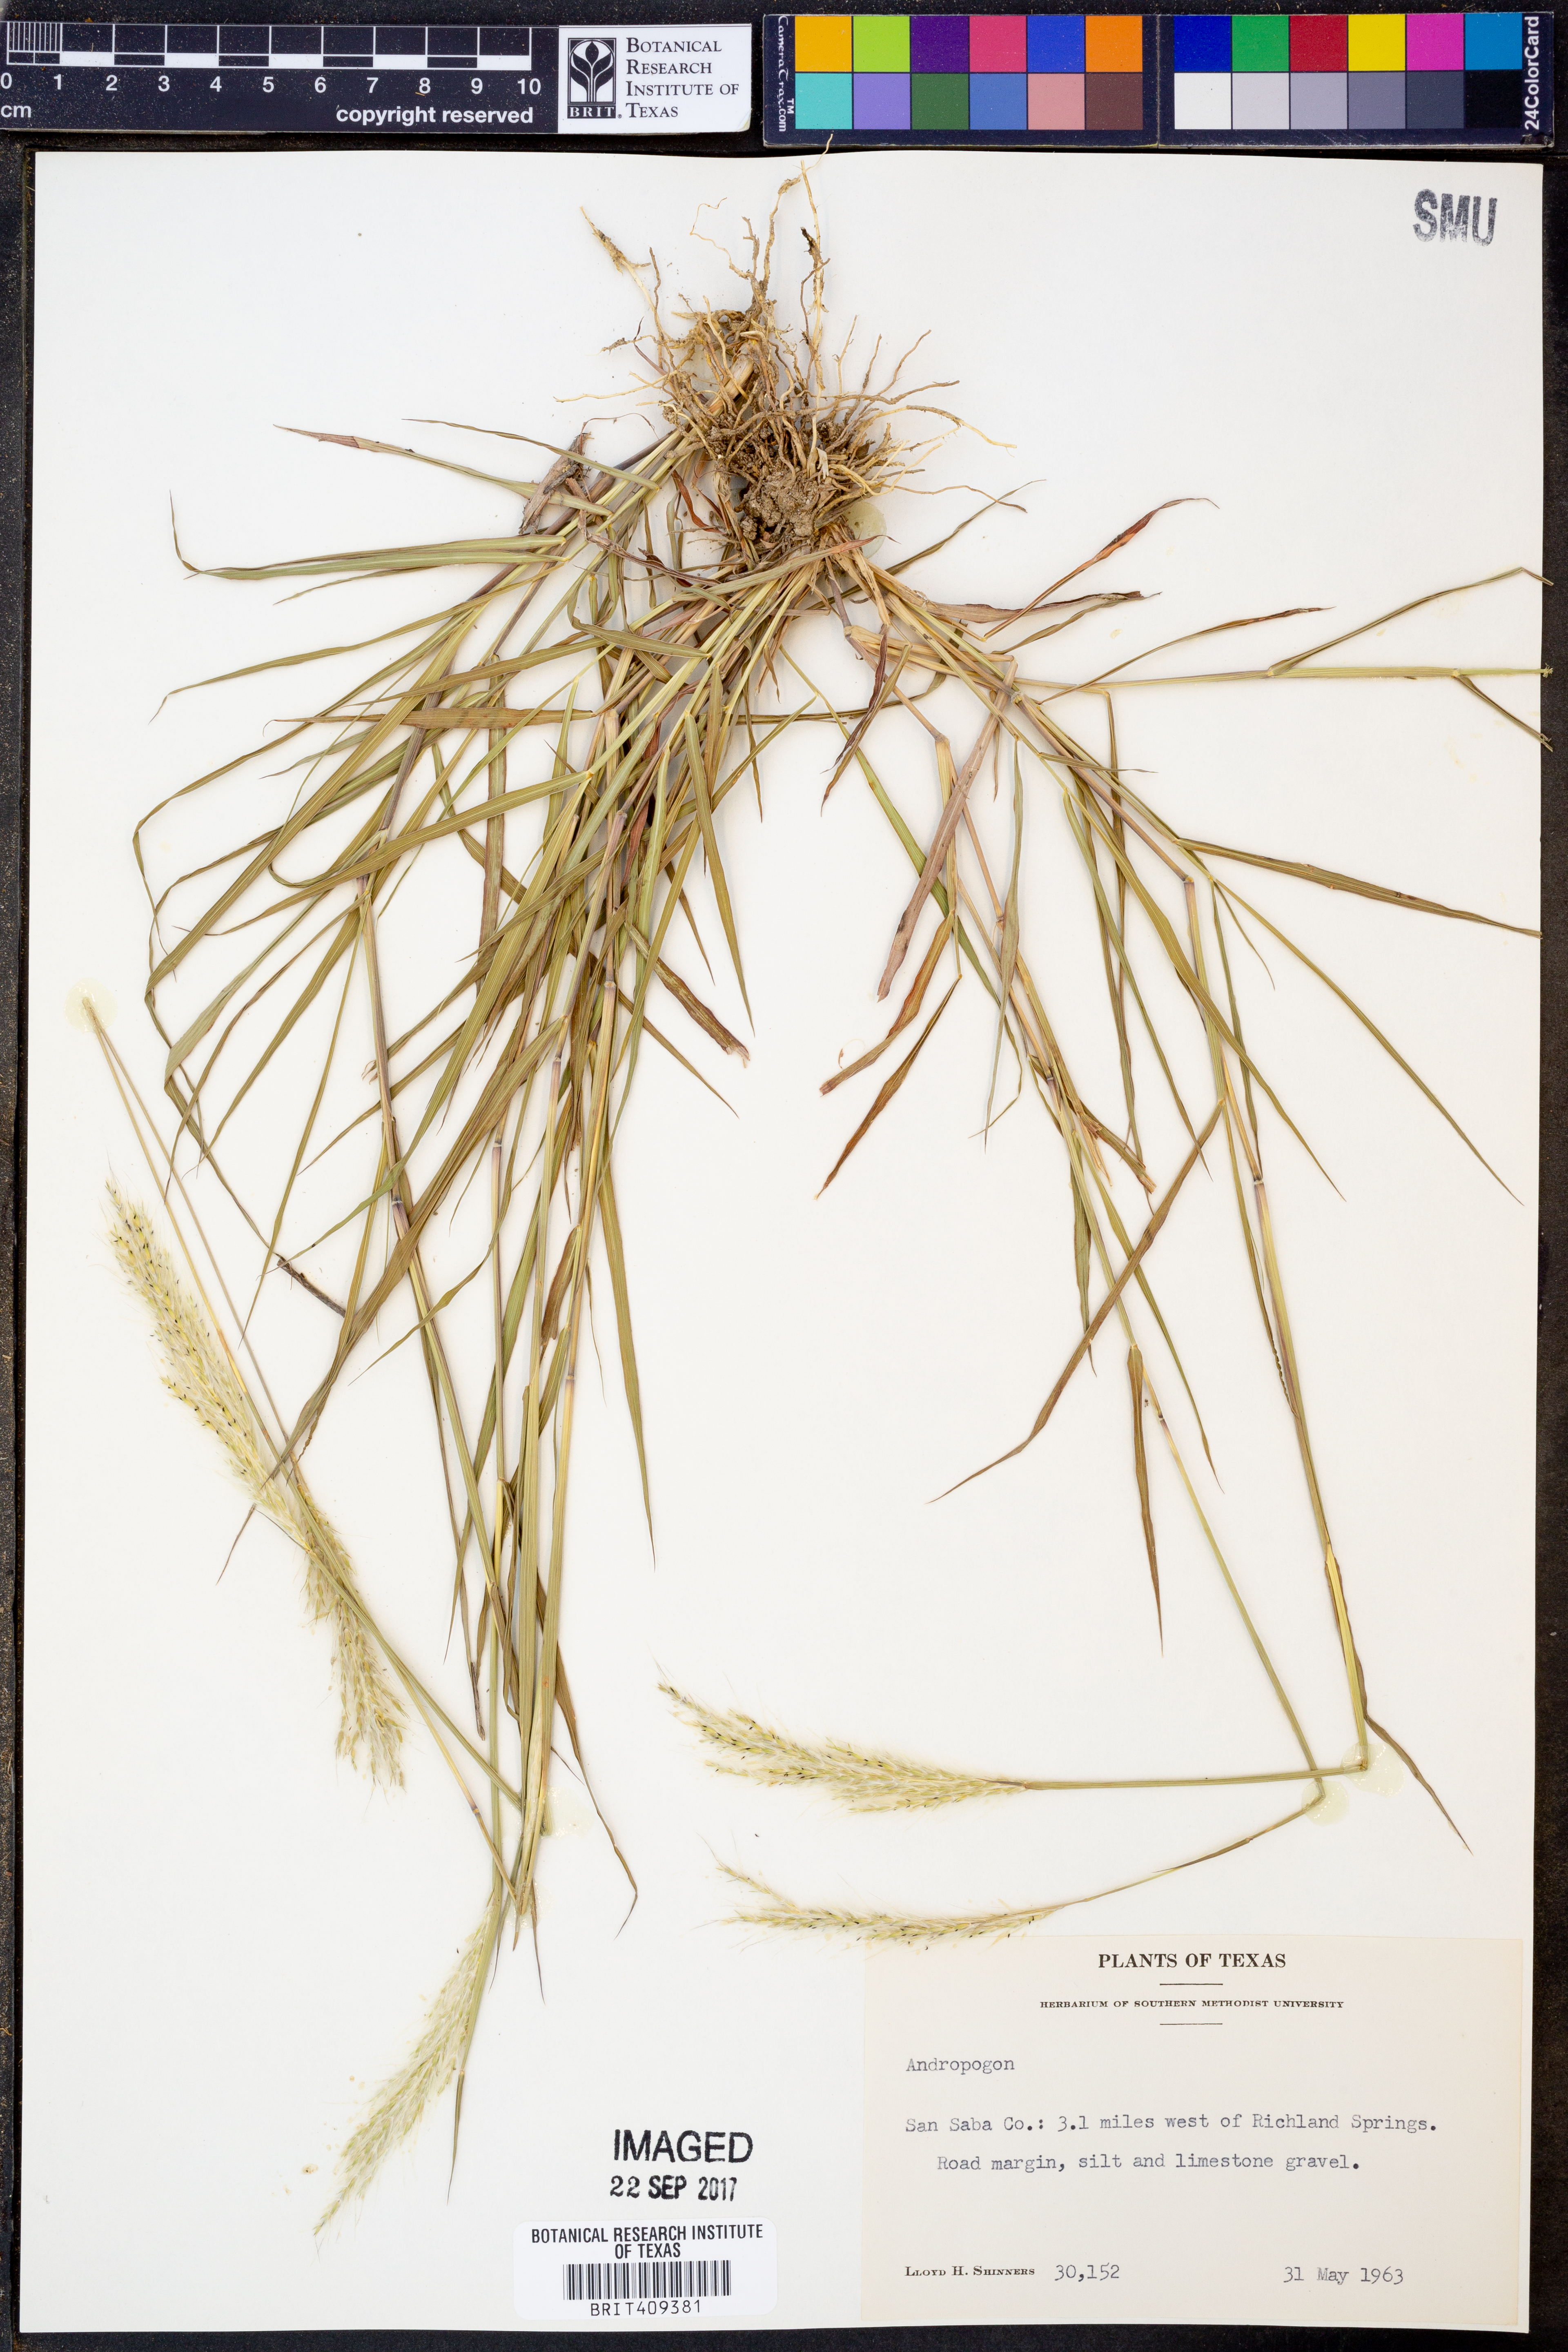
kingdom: Plantae
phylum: Tracheophyta
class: Liliopsida
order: Poales
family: Poaceae
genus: Andropogon
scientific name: Andropogon
